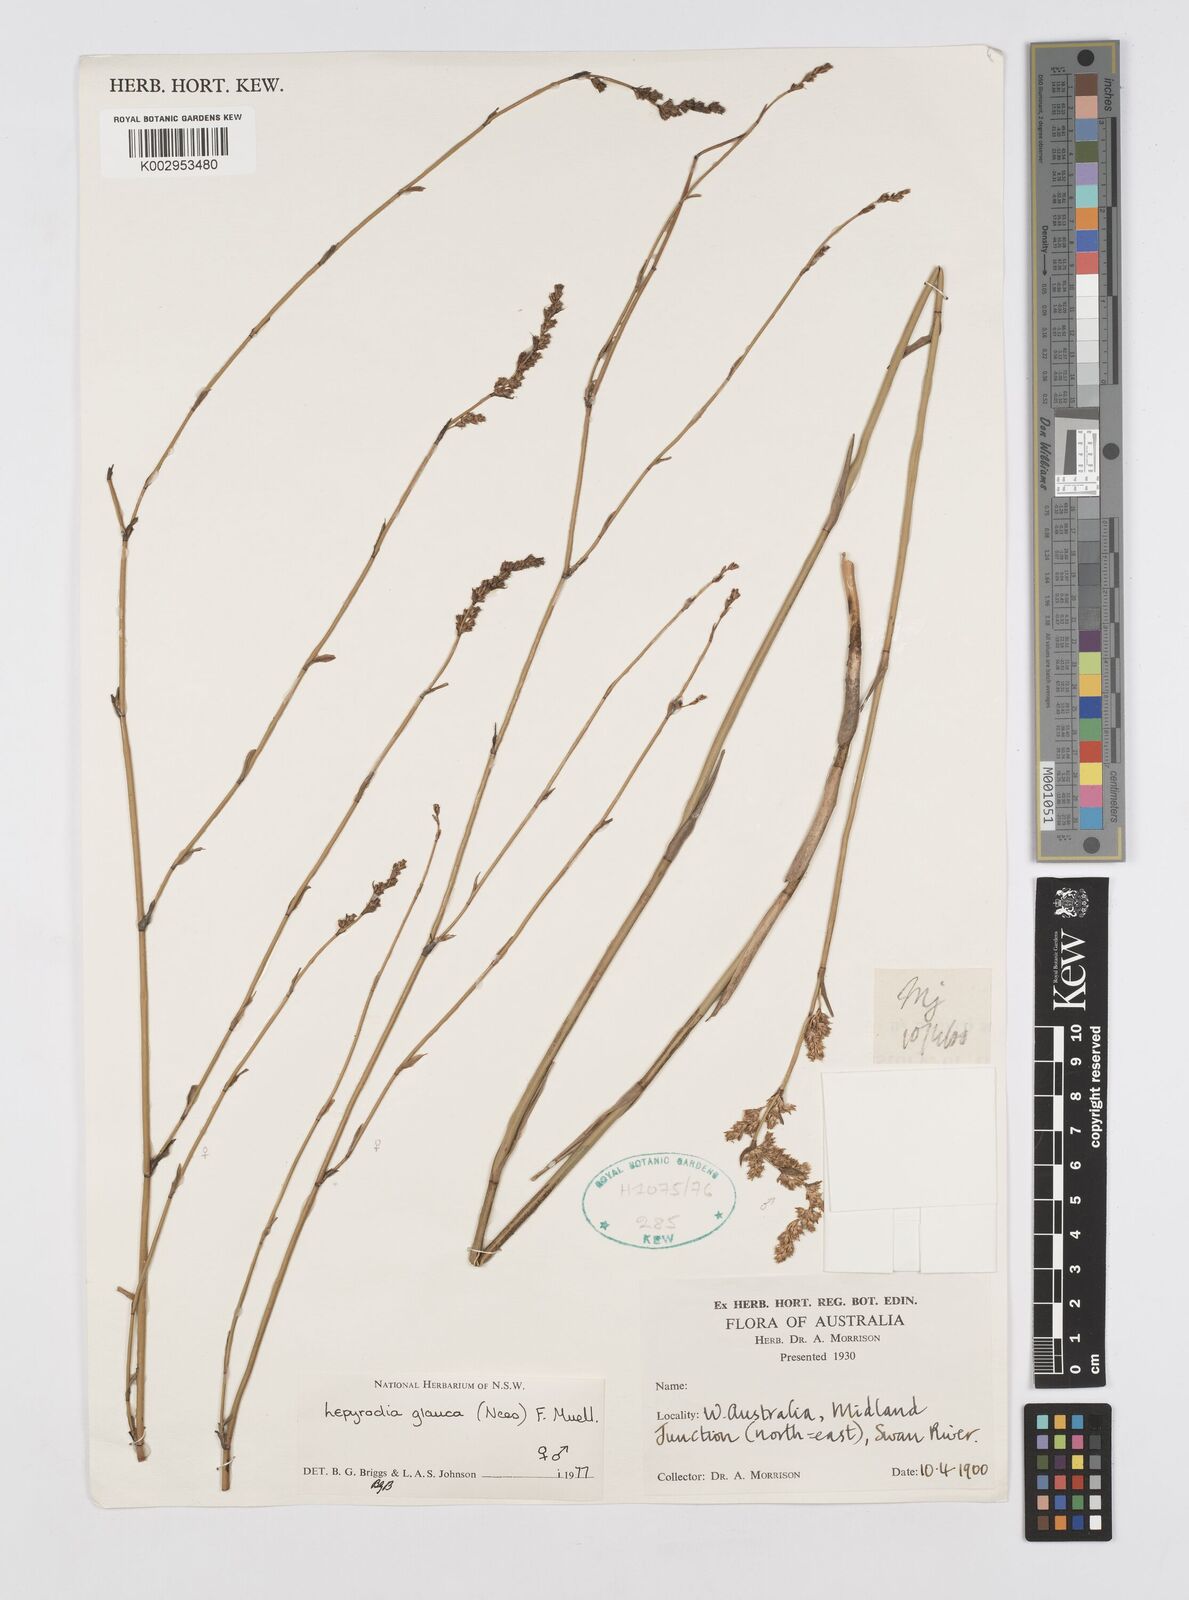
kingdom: Plantae
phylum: Tracheophyta
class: Liliopsida
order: Poales
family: Restionaceae
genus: Lepyrodia
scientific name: Lepyrodia glauca
